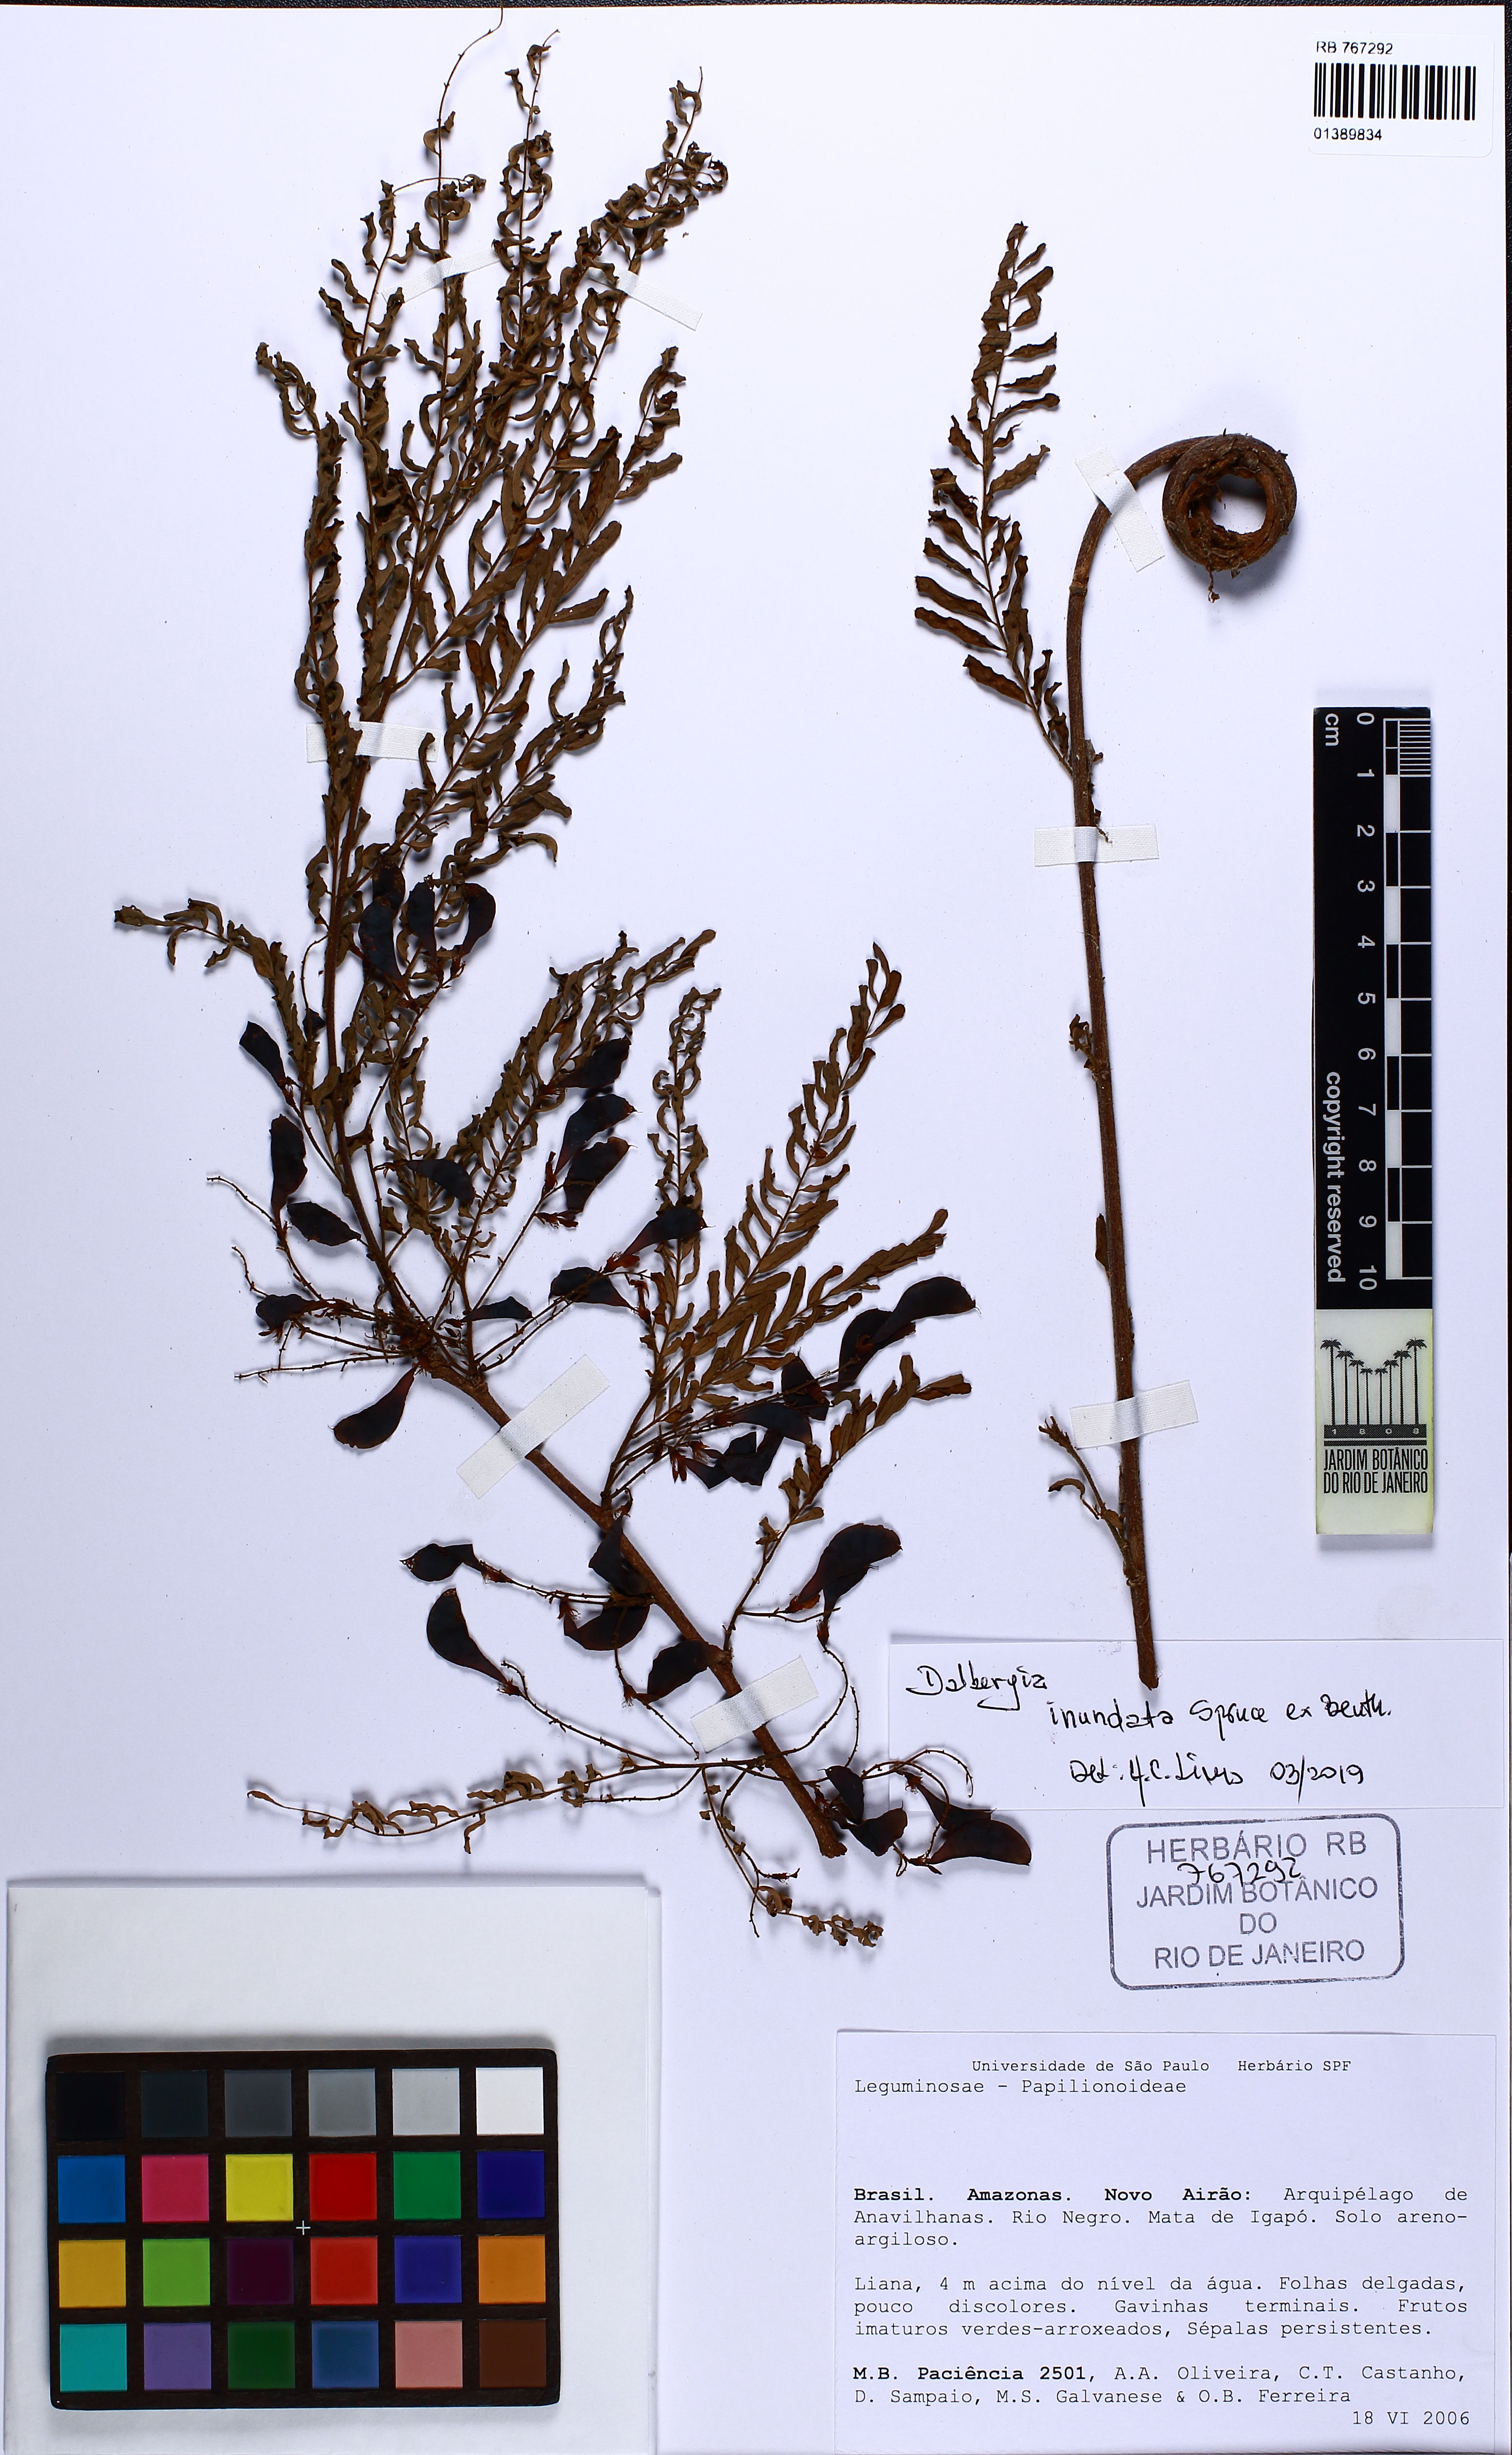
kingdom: Plantae
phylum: Tracheophyta
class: Magnoliopsida
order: Fabales
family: Fabaceae
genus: Dalbergia
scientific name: Dalbergia inundata
